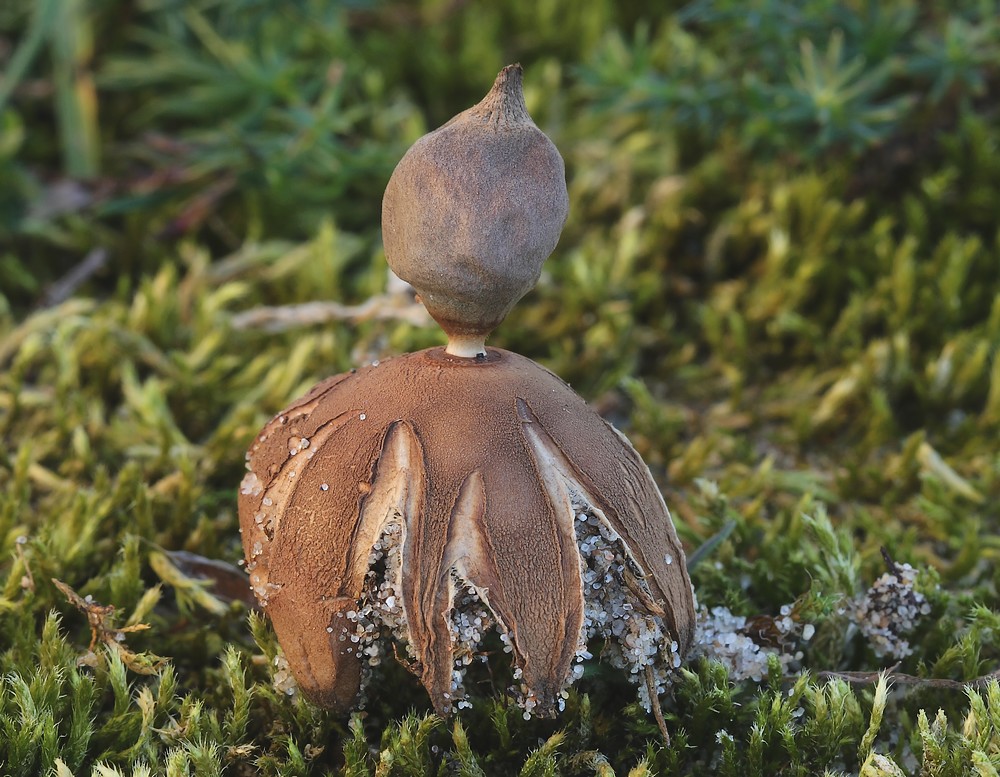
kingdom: Fungi
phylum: Basidiomycota
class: Agaricomycetes
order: Geastrales
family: Geastraceae
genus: Geastrum
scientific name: Geastrum striatum
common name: dværg-stjernebold
